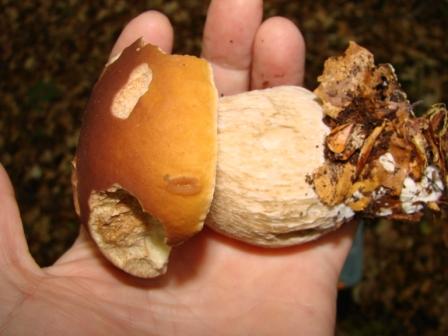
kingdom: Fungi
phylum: Basidiomycota
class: Agaricomycetes
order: Boletales
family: Boletaceae
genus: Boletus
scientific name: Boletus edulis
